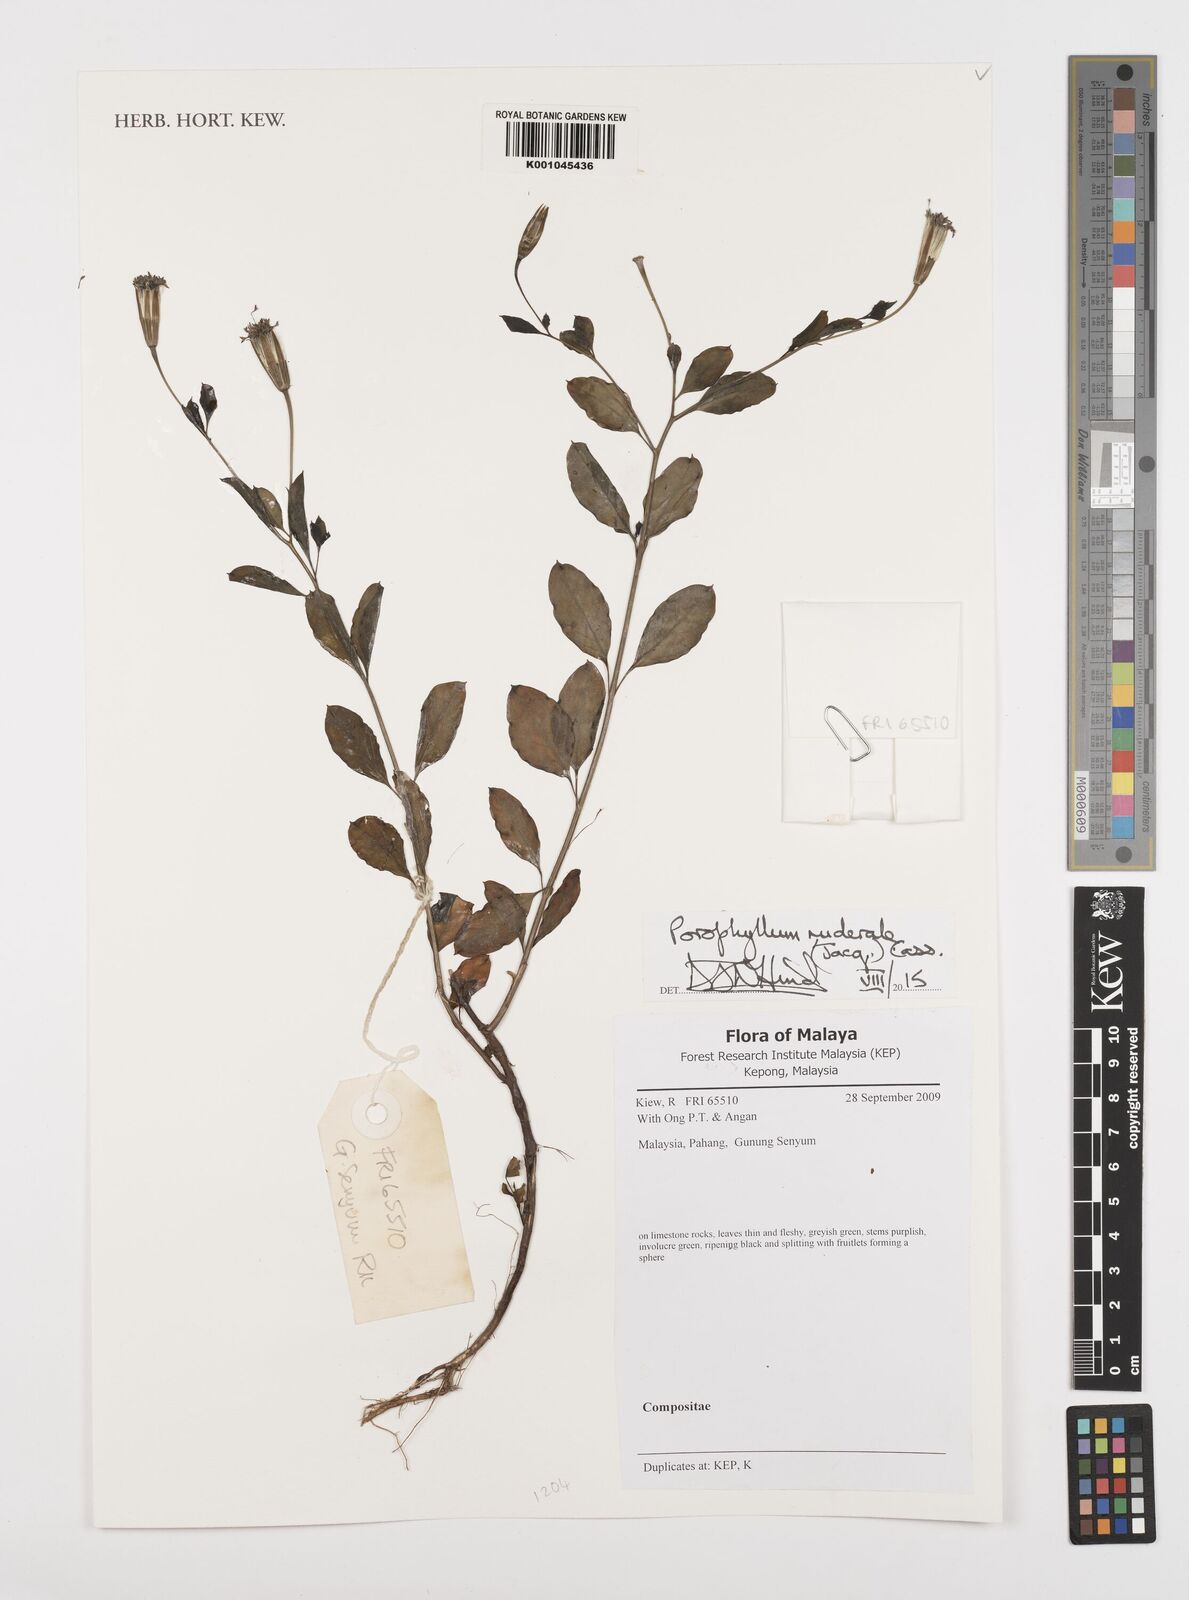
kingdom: Plantae
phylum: Tracheophyta
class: Magnoliopsida
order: Asterales
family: Asteraceae
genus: Porophyllum
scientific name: Porophyllum ruderale
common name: Yerba porosa
